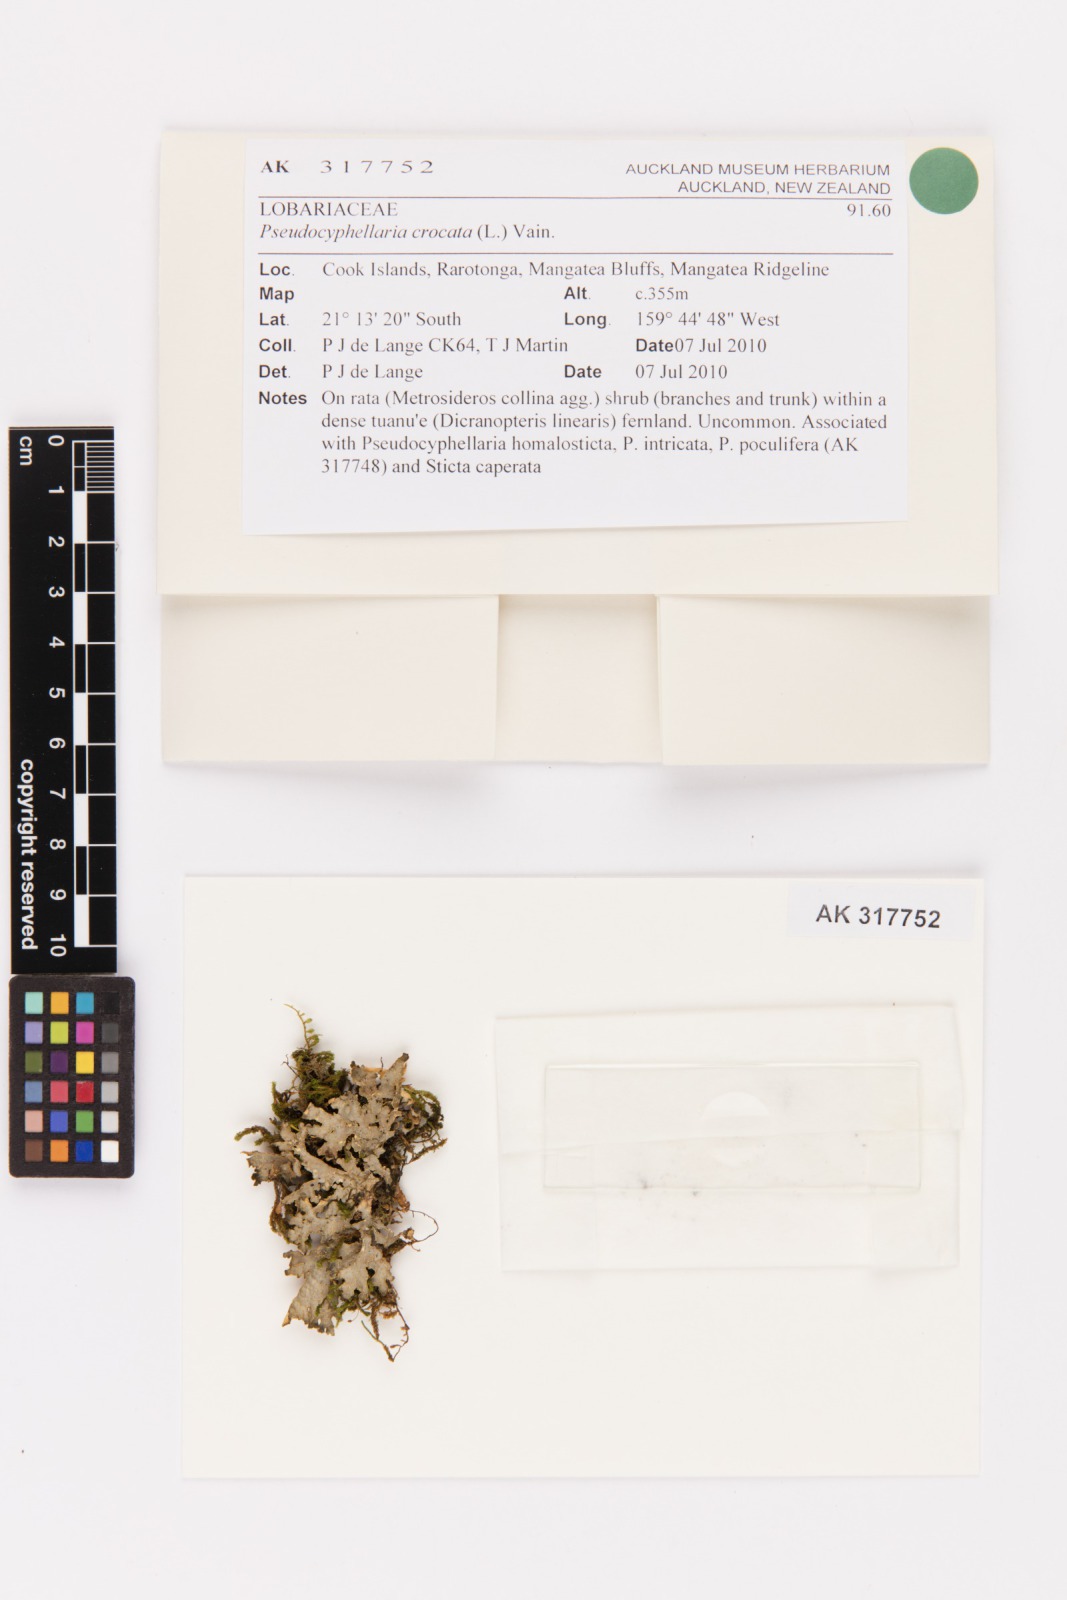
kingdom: Fungi
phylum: Ascomycota
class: Lecanoromycetes
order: Peltigerales
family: Lobariaceae
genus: Pseudocyphellaria
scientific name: Pseudocyphellaria crocata
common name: Golden specklebelly
